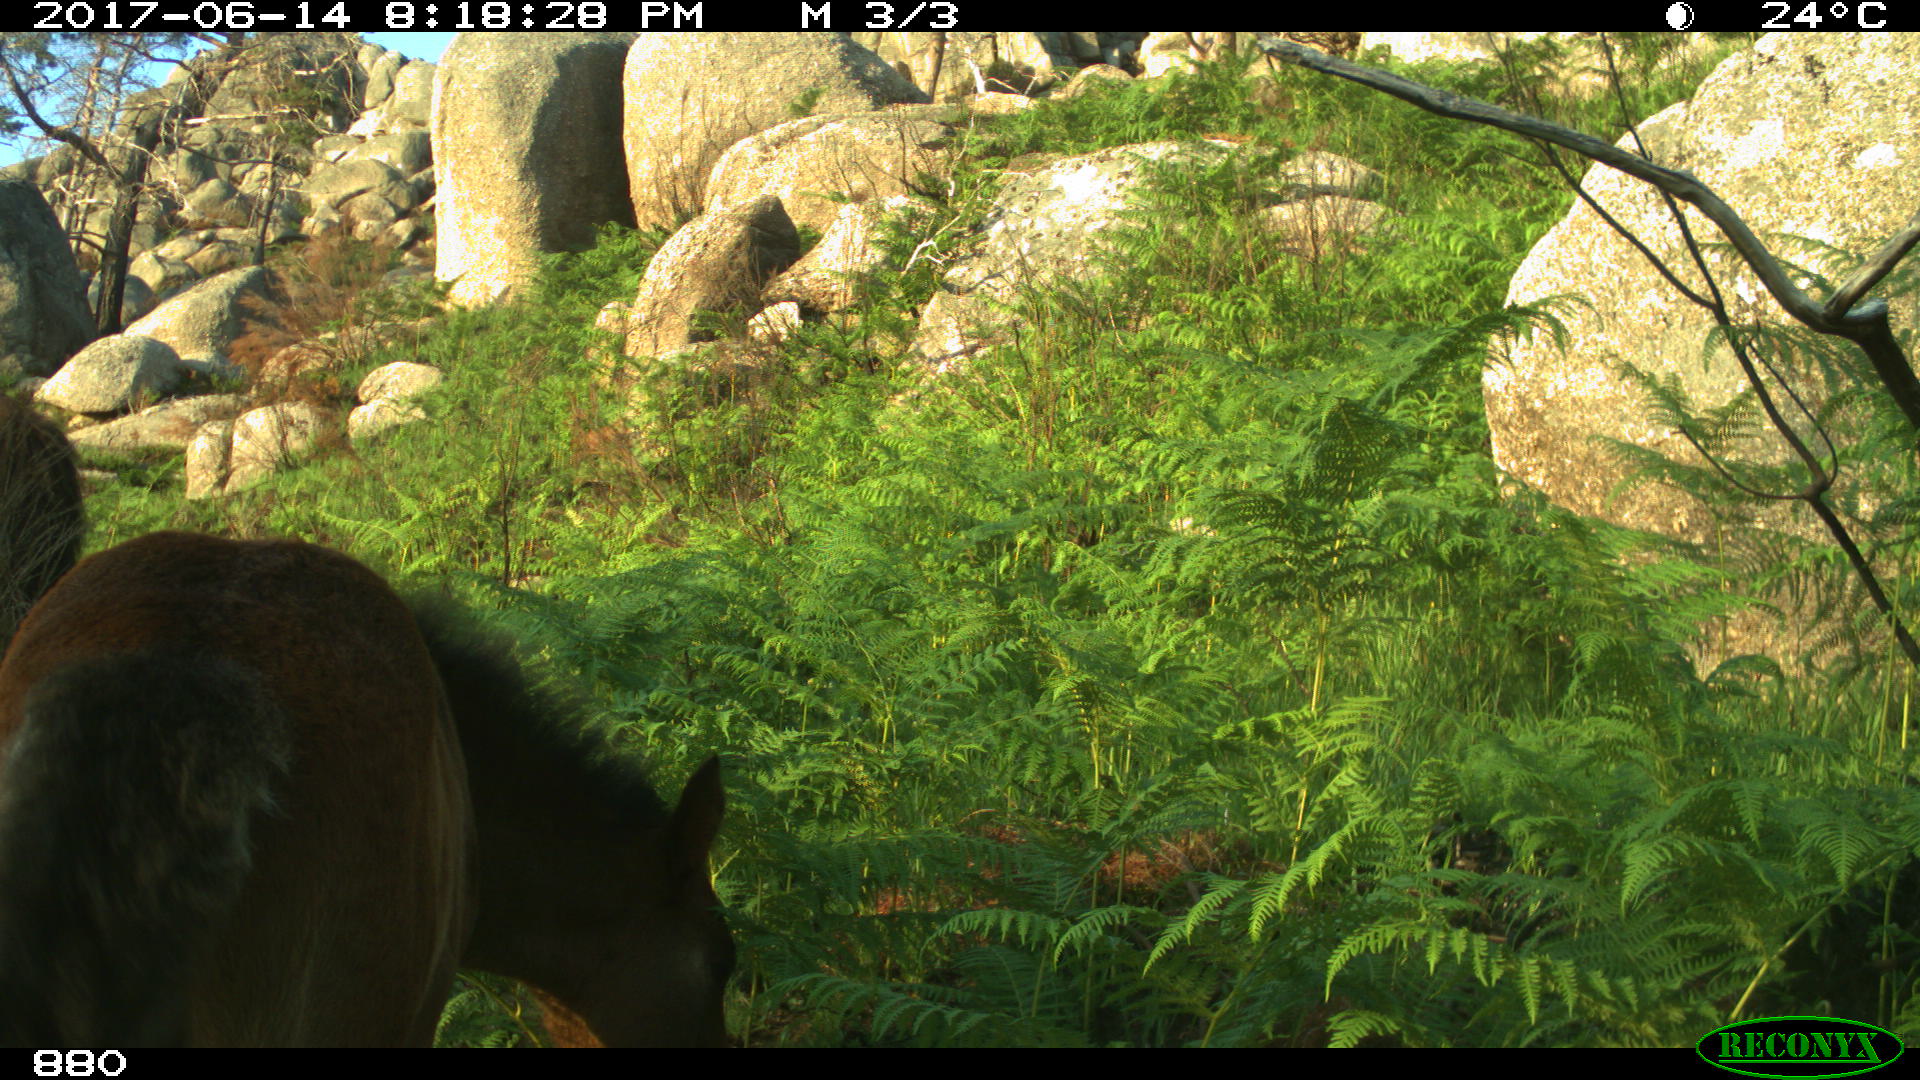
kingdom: Animalia
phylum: Chordata
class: Mammalia
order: Perissodactyla
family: Equidae
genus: Equus
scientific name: Equus caballus
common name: Horse
